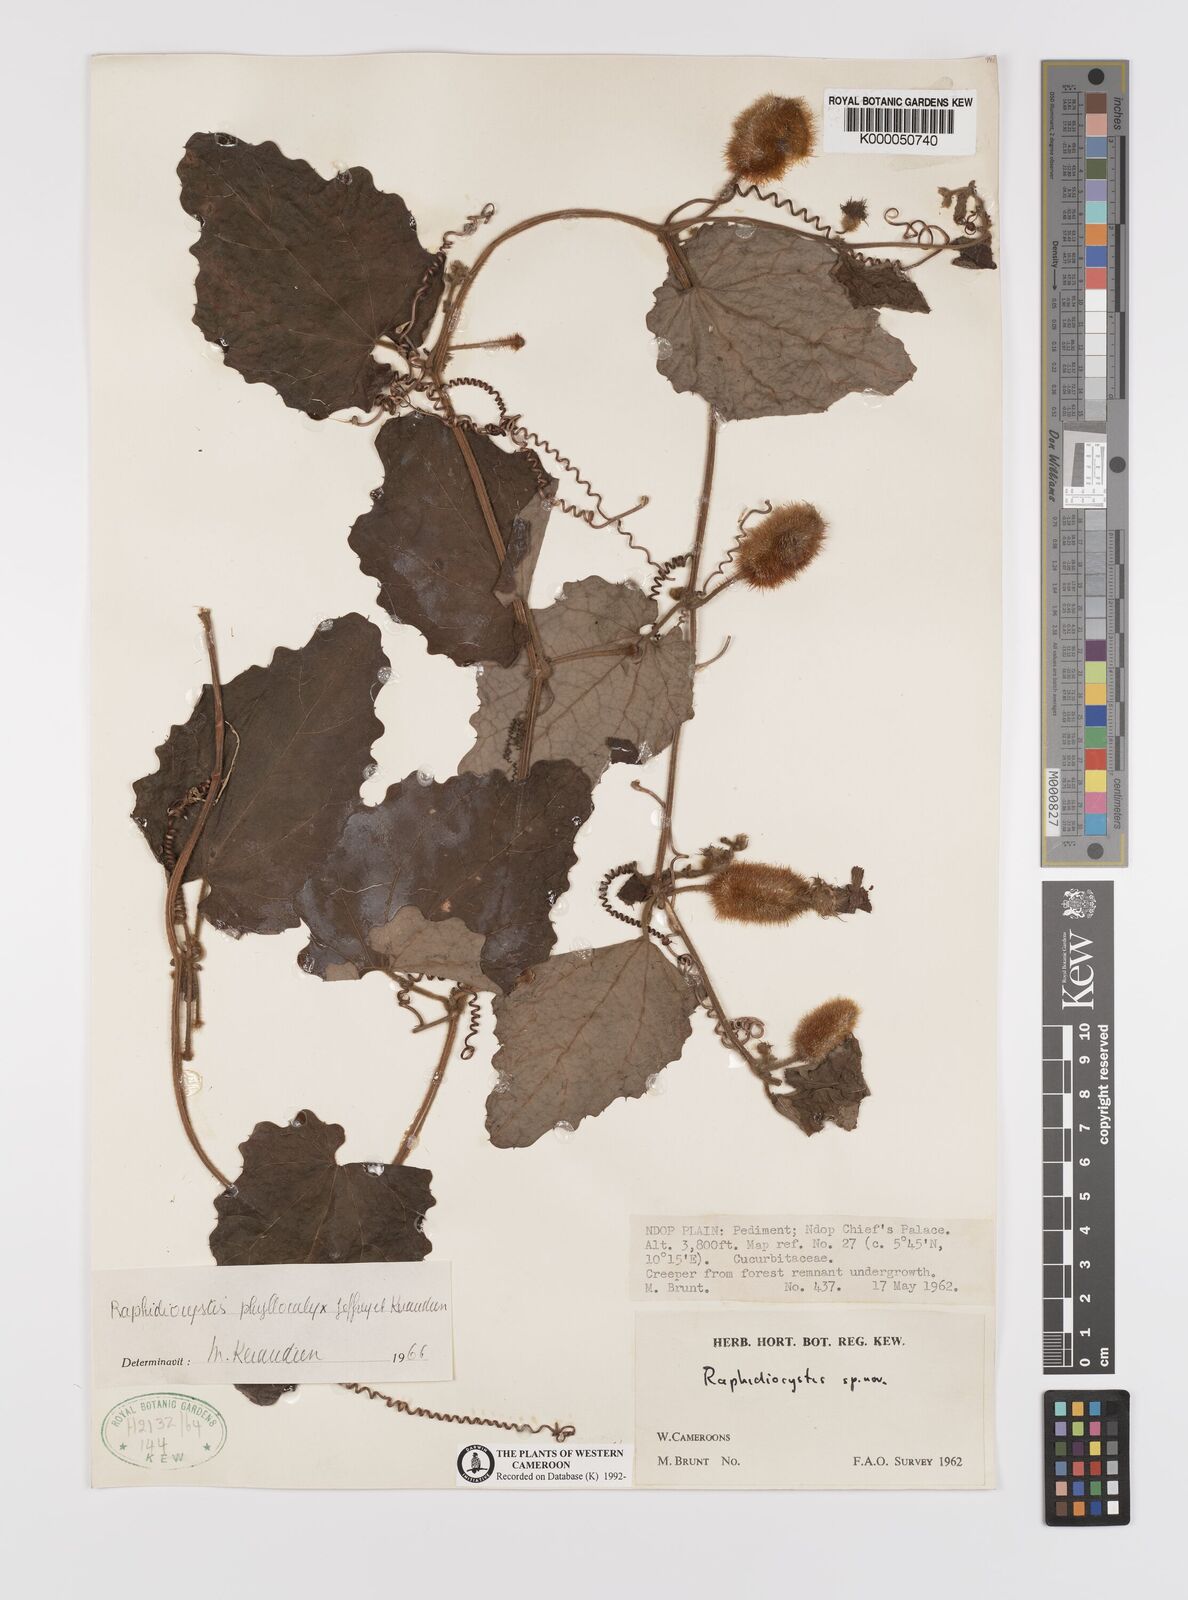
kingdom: Plantae
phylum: Tracheophyta
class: Magnoliopsida
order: Cucurbitales
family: Cucurbitaceae
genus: Raphidiocystis
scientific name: Raphidiocystis phyllocalyx
